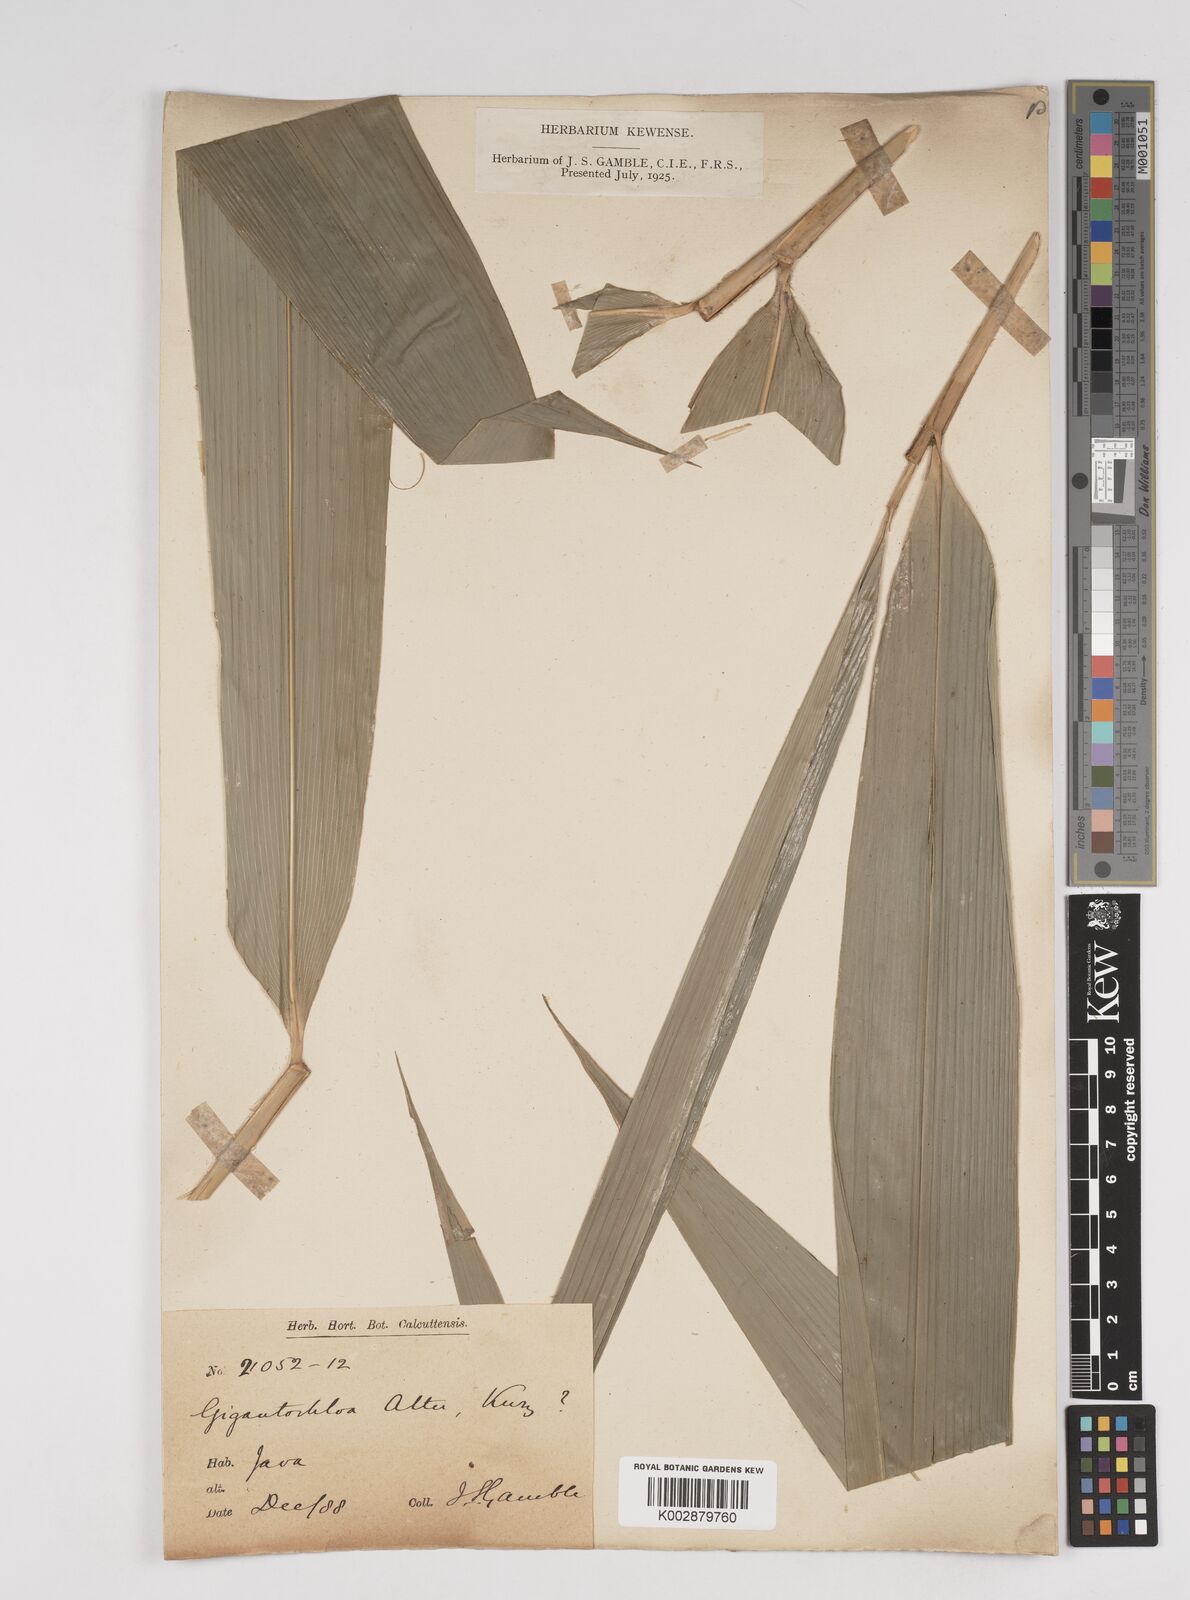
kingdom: Plantae
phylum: Tracheophyta
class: Liliopsida
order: Poales
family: Poaceae
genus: Gigantochloa
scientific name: Gigantochloa atter
